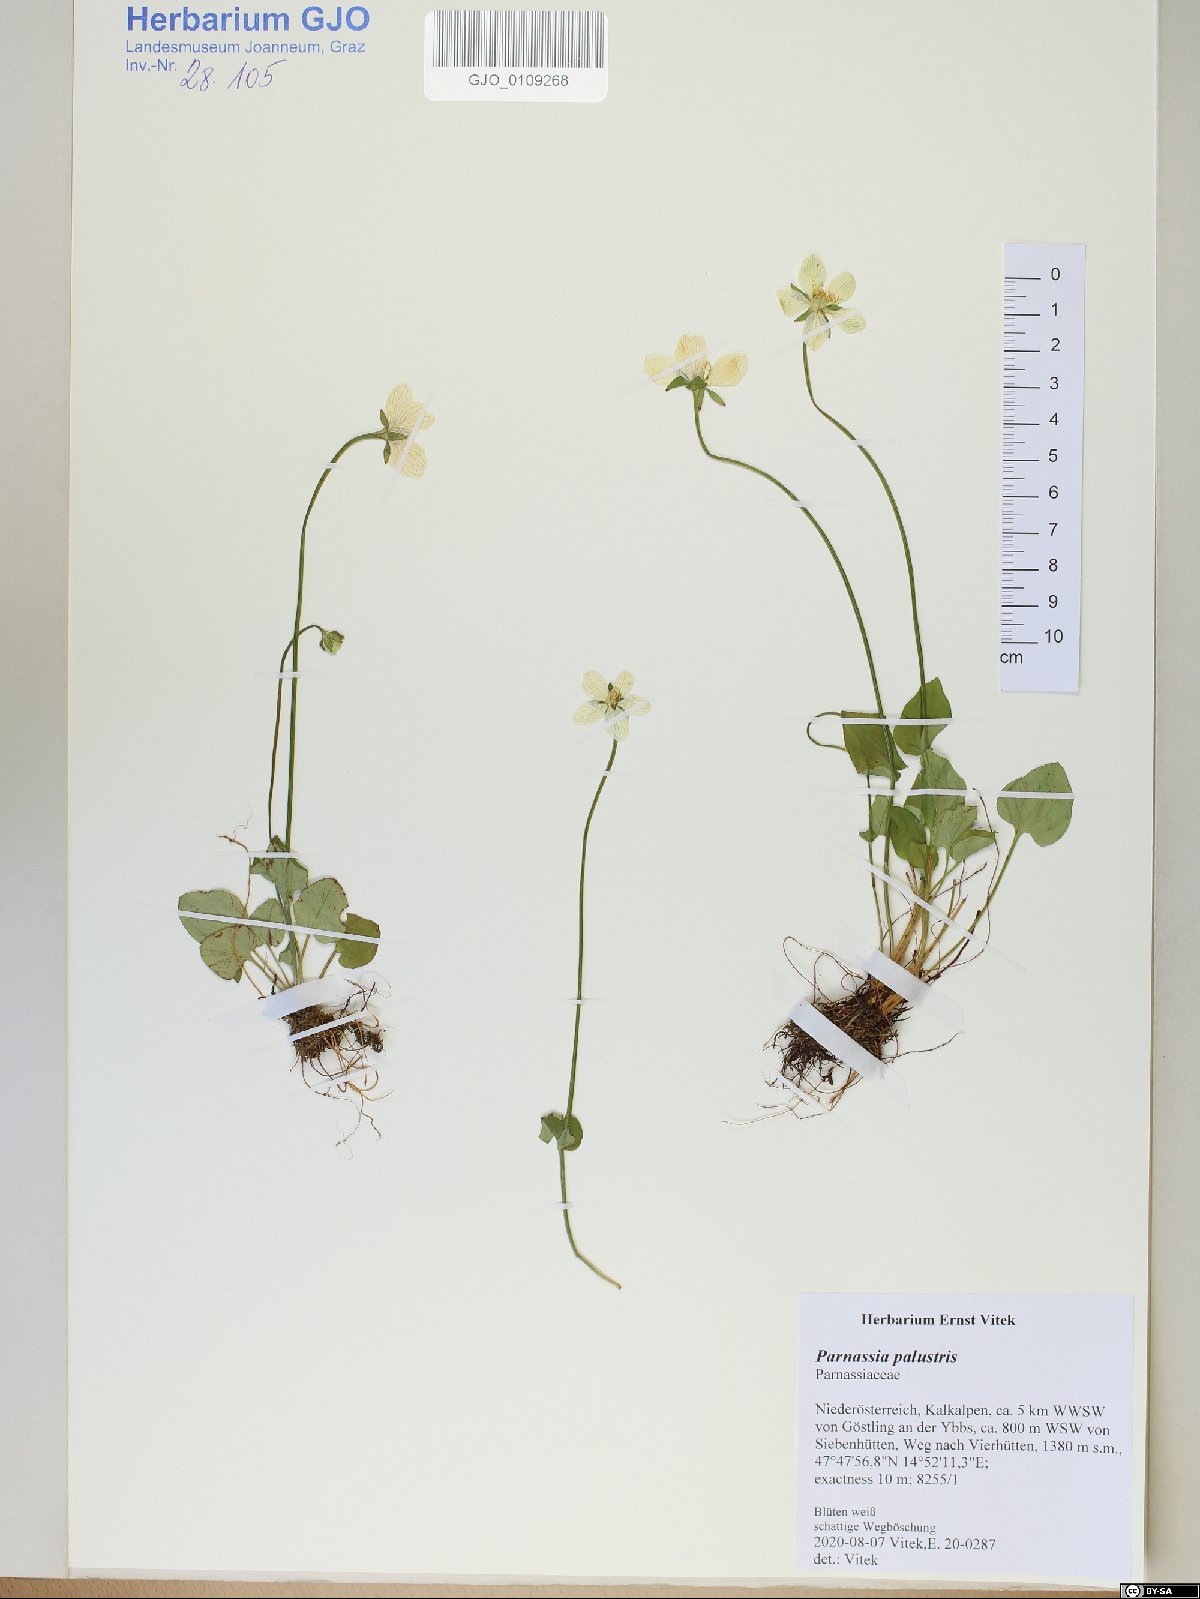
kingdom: Plantae
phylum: Tracheophyta
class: Magnoliopsida
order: Celastrales
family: Parnassiaceae
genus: Parnassia
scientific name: Parnassia palustris
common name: Grass-of-parnassus
